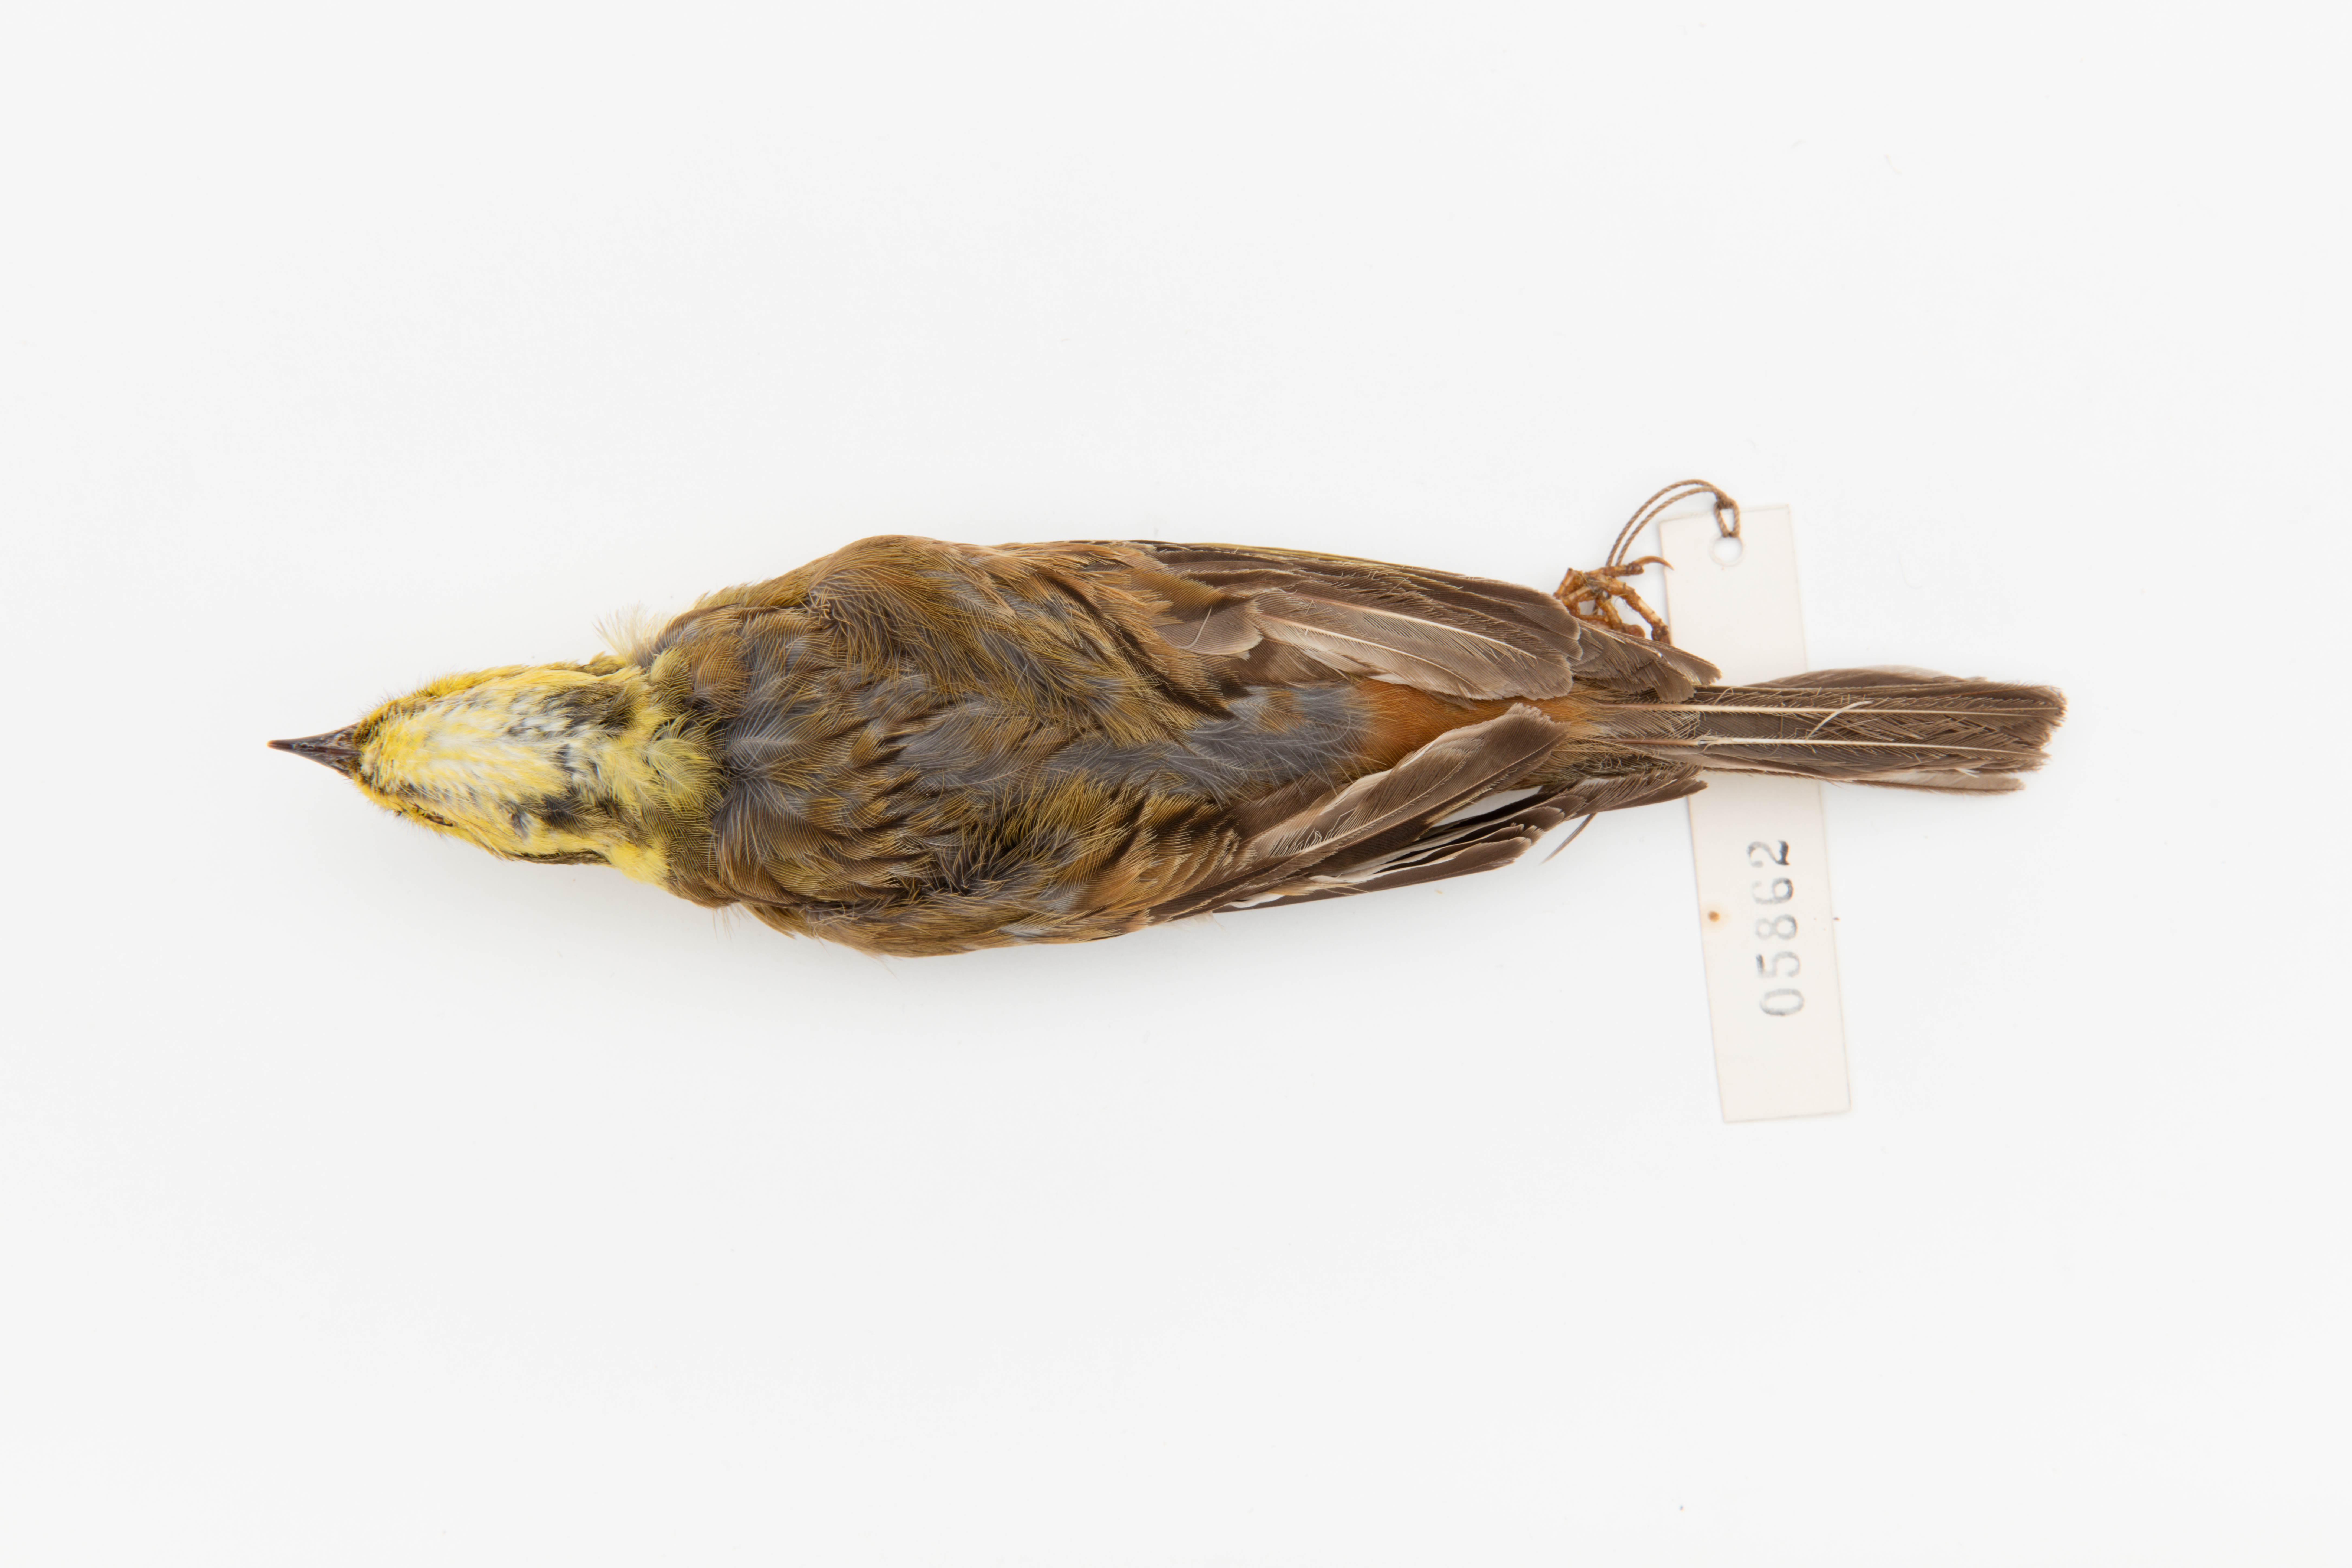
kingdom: Animalia
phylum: Chordata
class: Aves
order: Passeriformes
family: Emberizidae
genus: Emberiza
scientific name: Emberiza citrinella
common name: Yellowhammer
